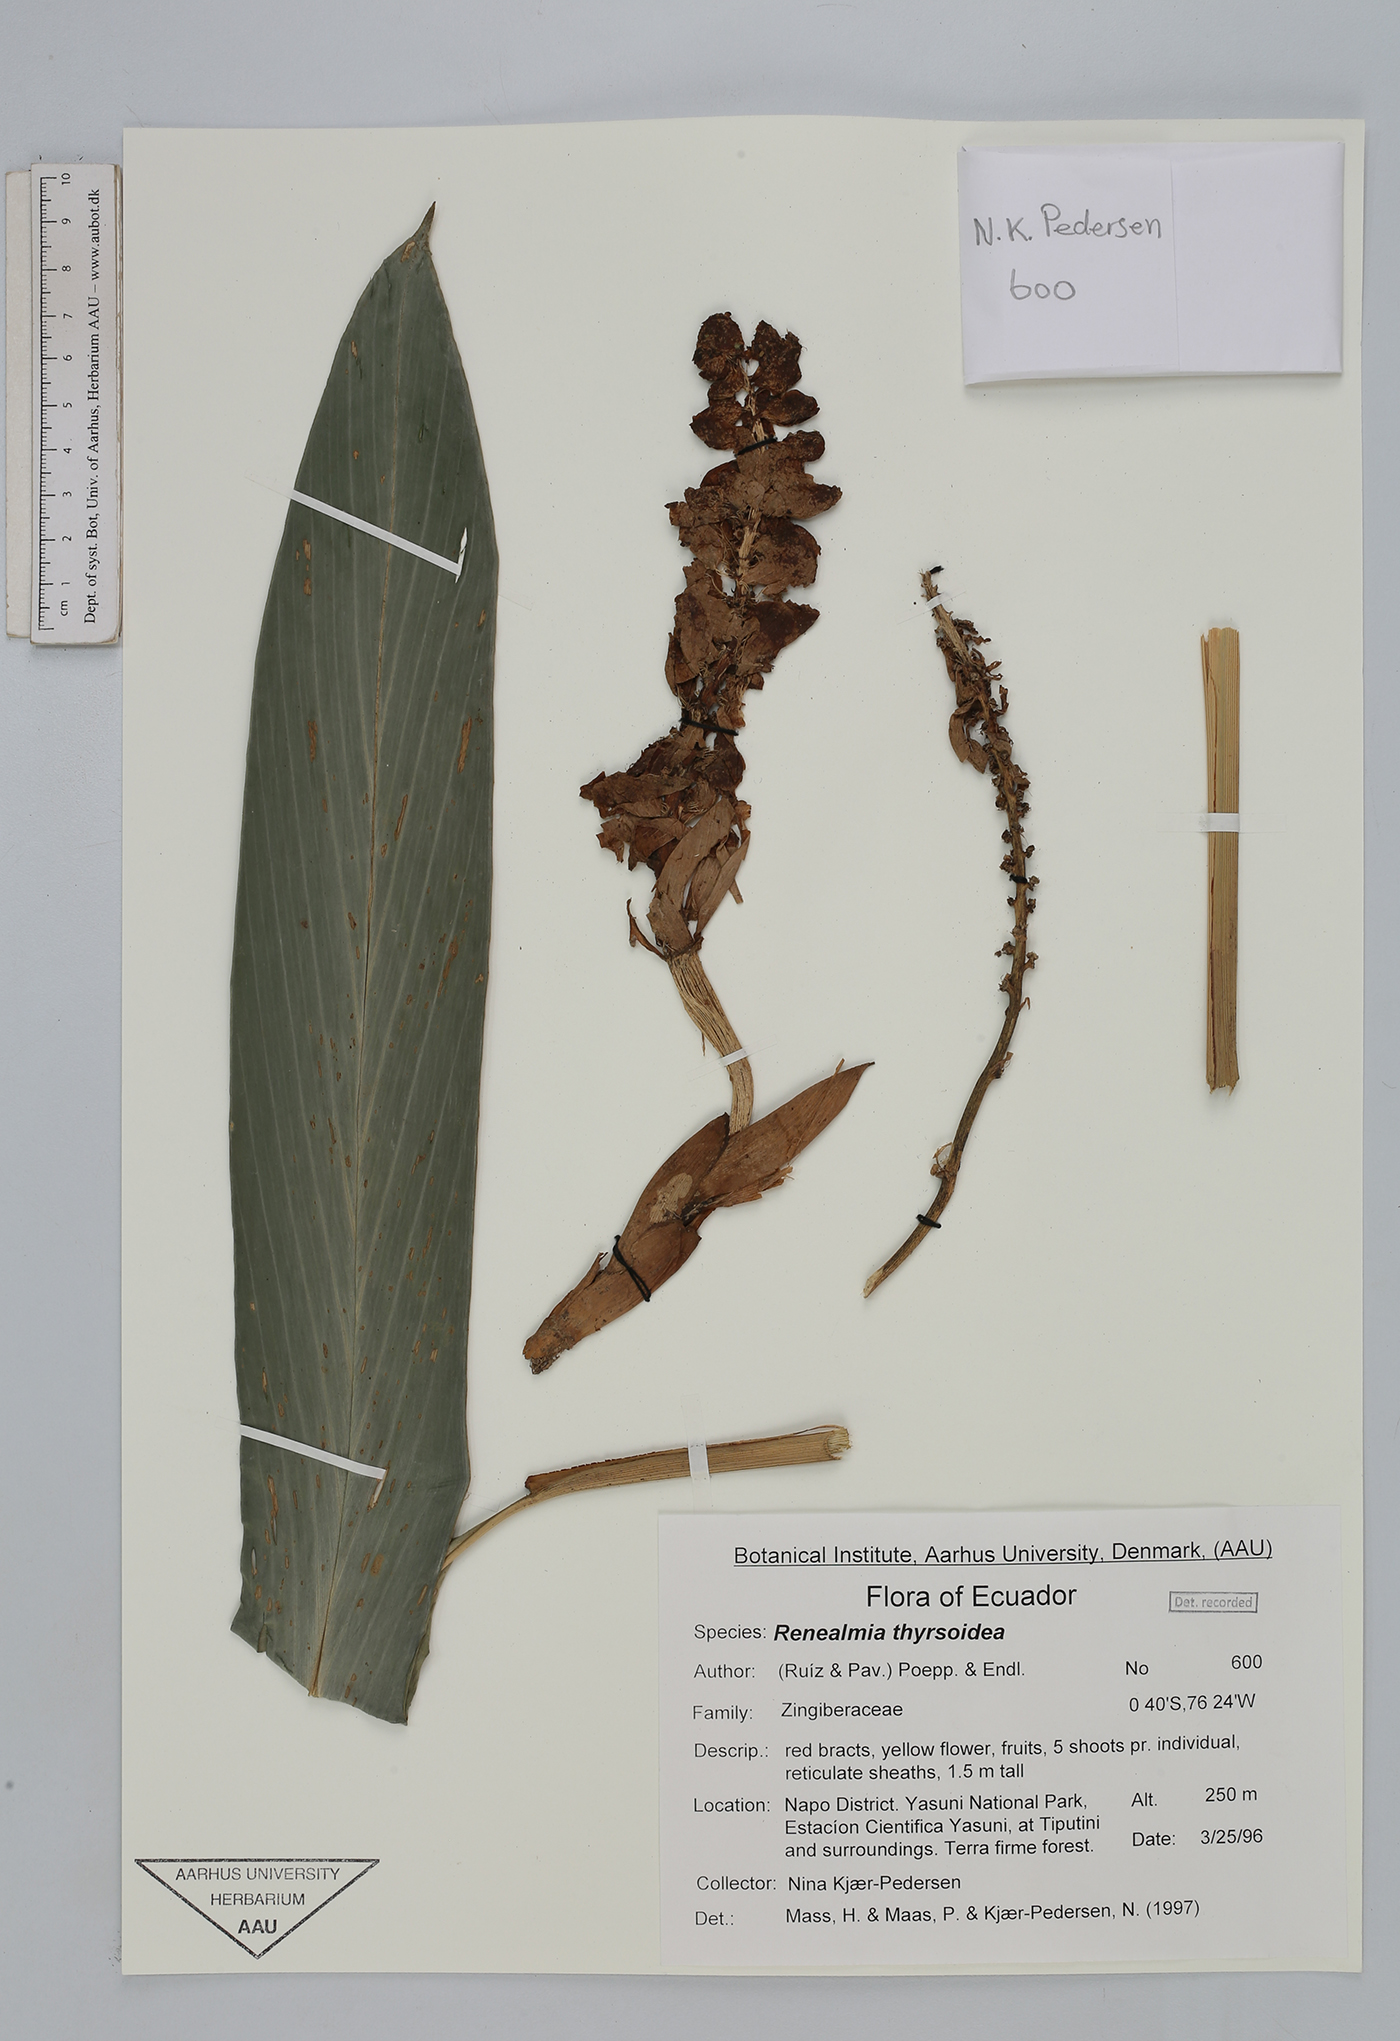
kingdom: Plantae
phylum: Tracheophyta
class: Liliopsida
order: Zingiberales
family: Zingiberaceae
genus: Renealmia
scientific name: Renealmia thyrsoidea
